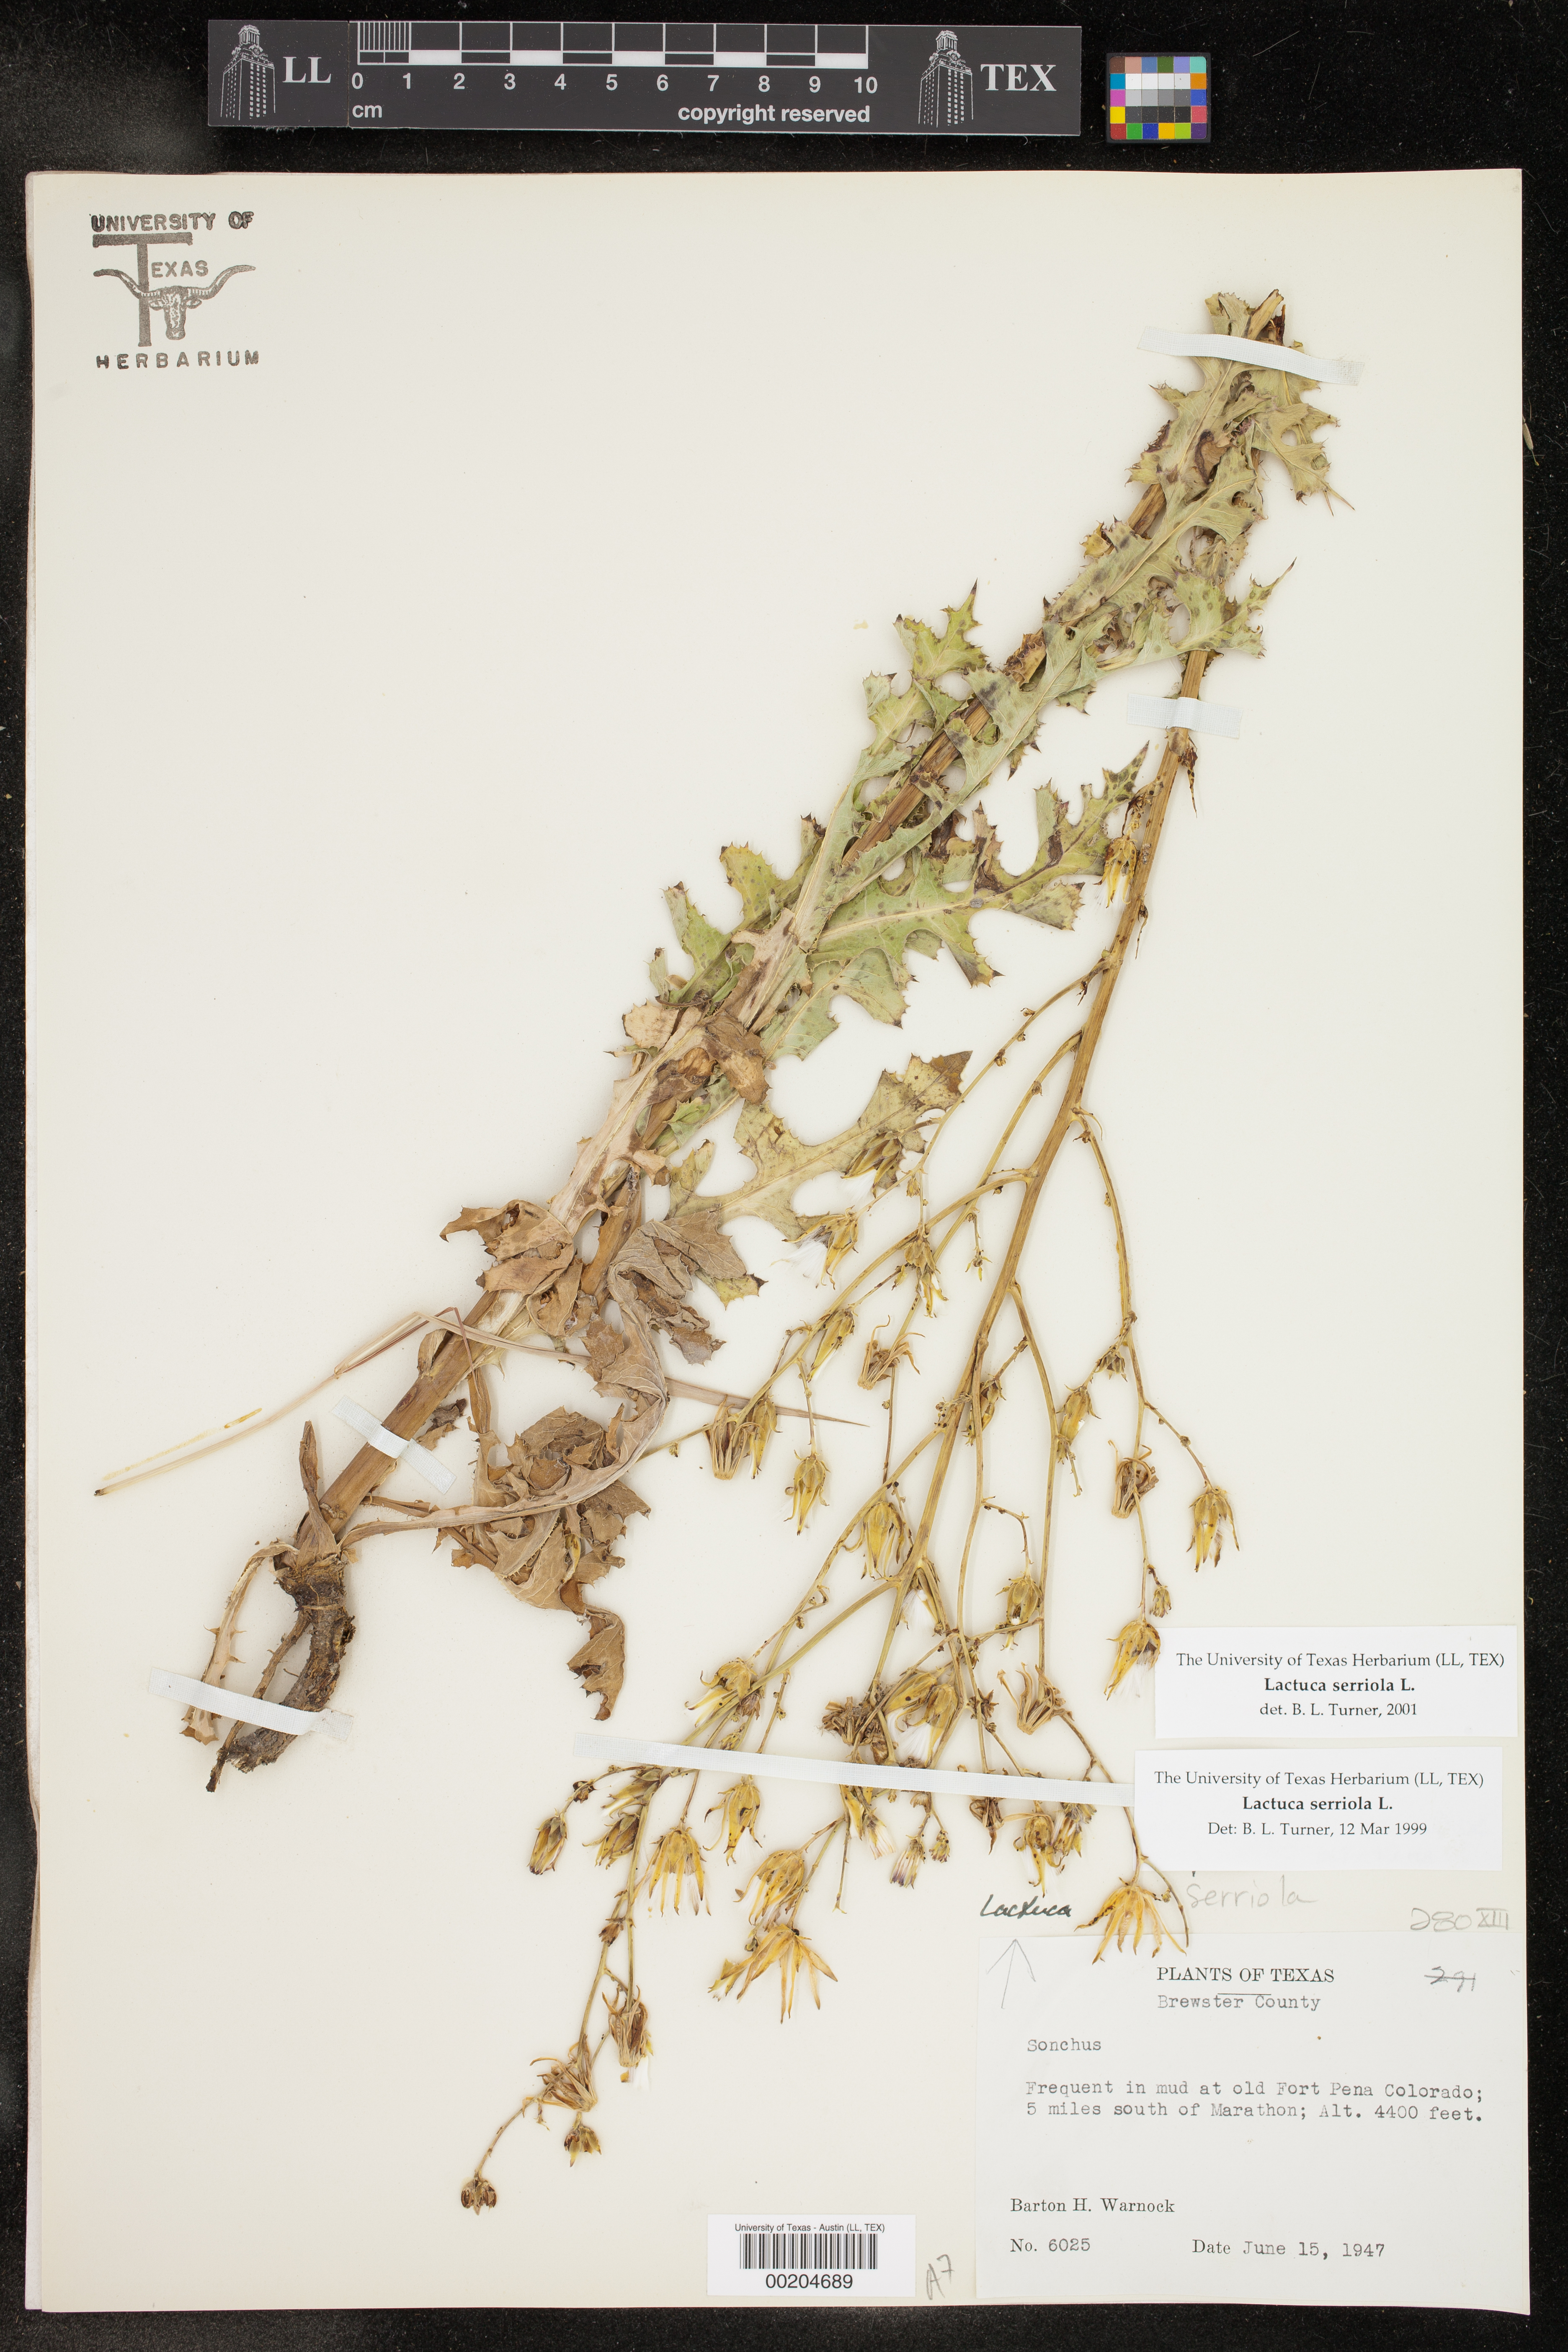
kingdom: Plantae
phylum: Tracheophyta
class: Magnoliopsida
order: Asterales
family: Asteraceae
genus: Lactuca
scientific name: Lactuca serriola
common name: Prickly lettuce
